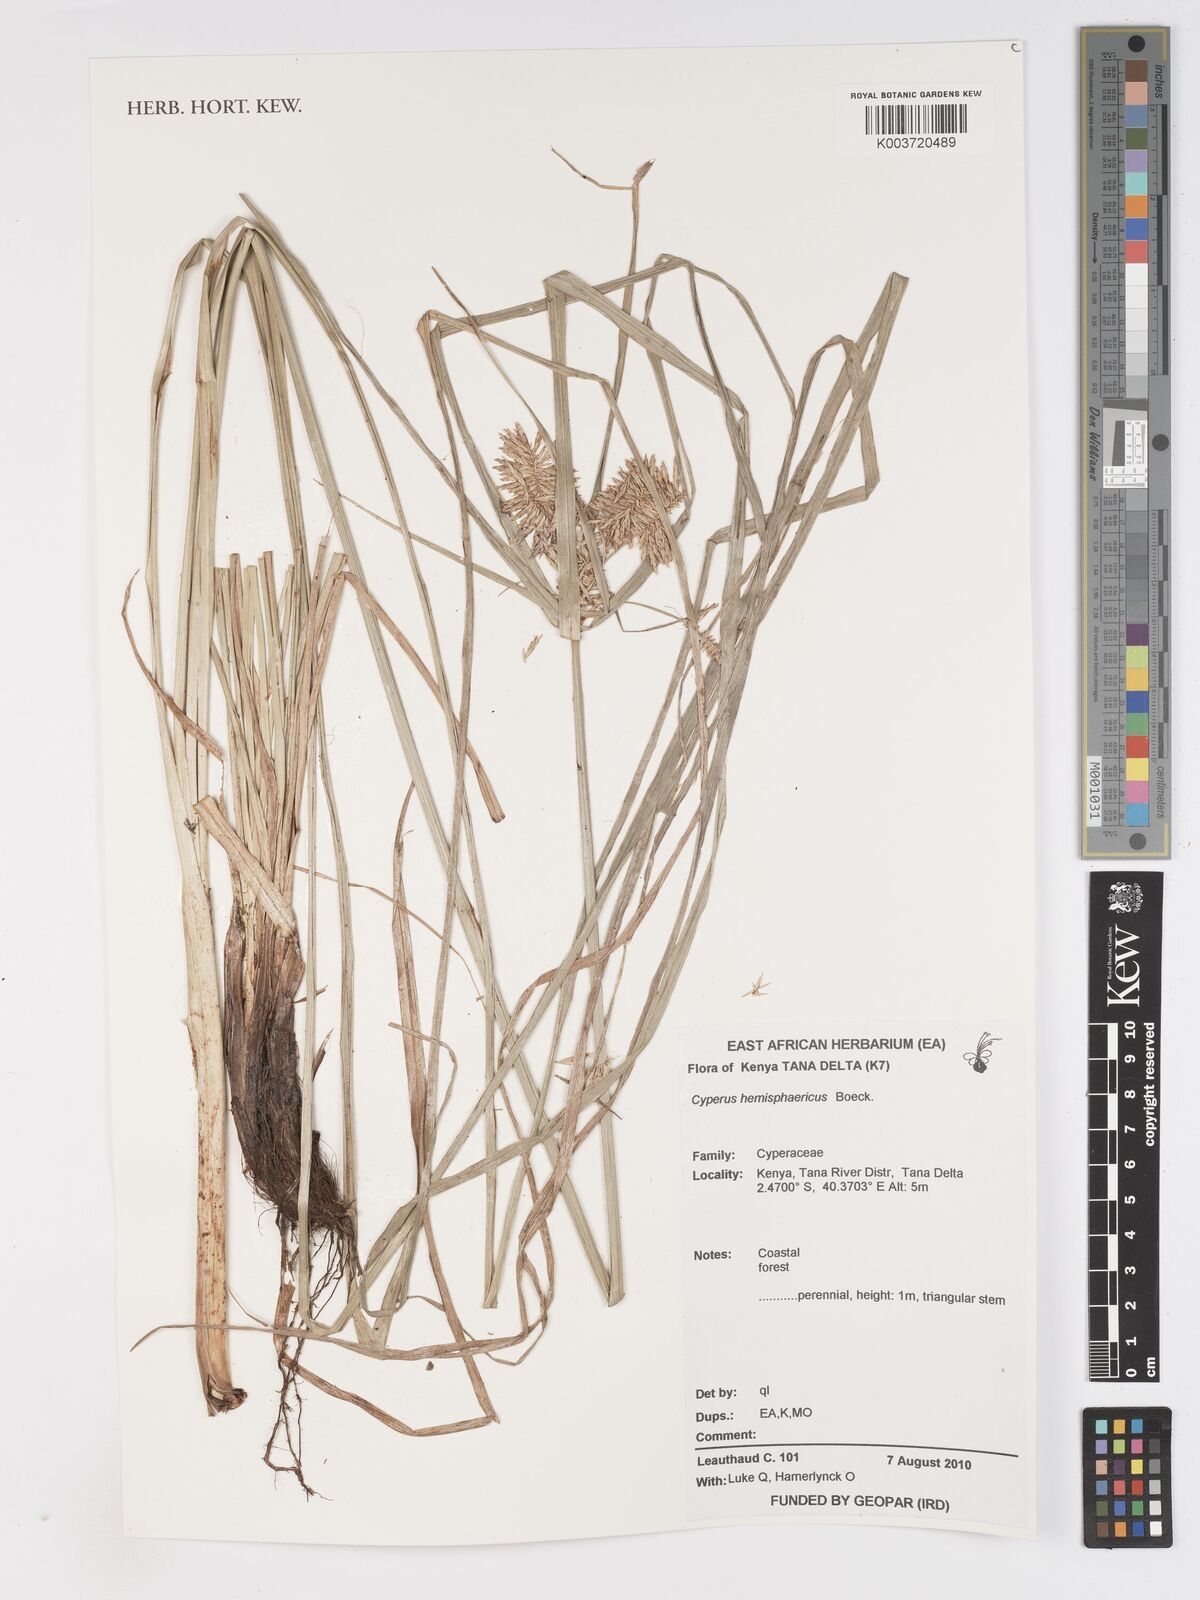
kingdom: Plantae
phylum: Tracheophyta
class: Liliopsida
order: Poales
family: Cyperaceae
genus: Cyperus
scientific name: Cyperus hemisphaericus
